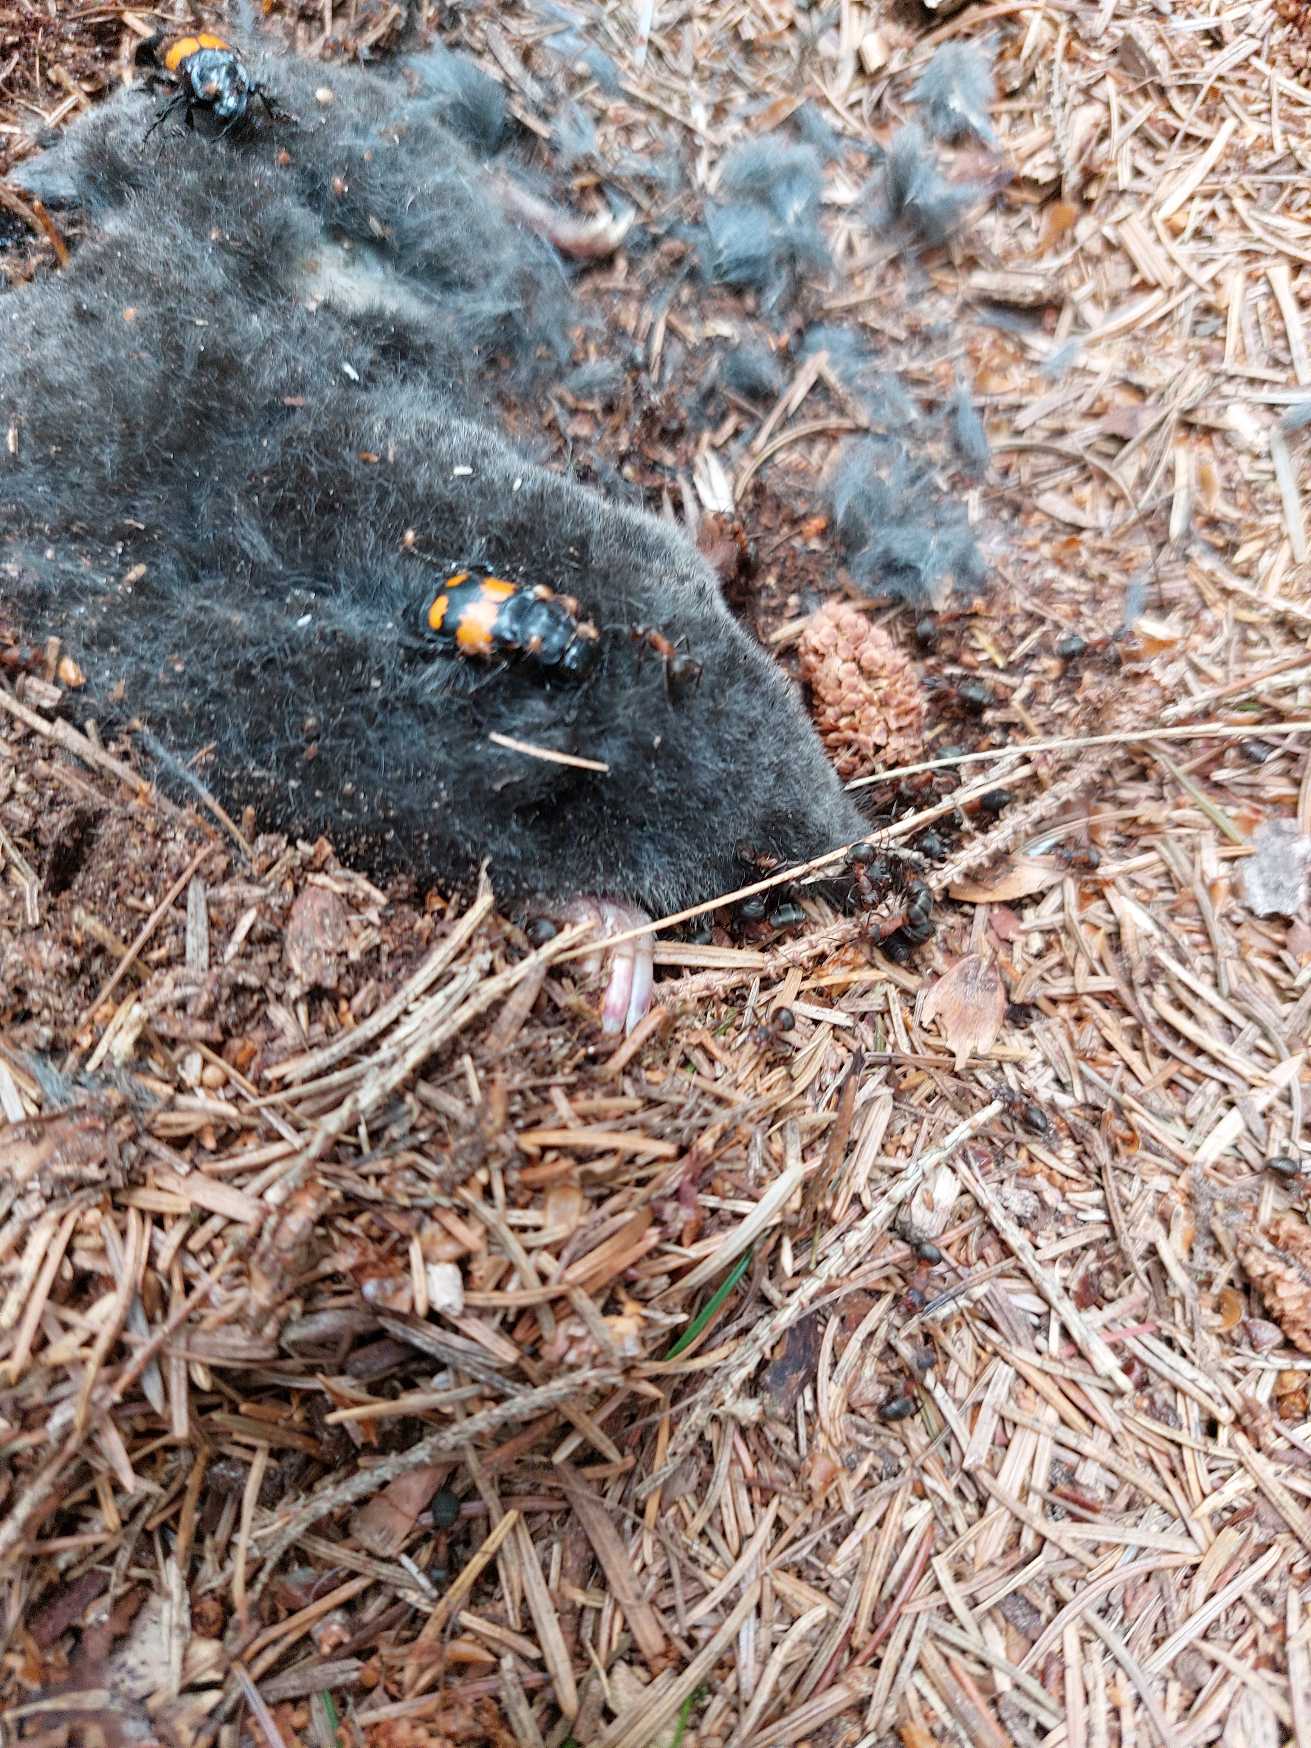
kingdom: Animalia
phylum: Chordata
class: Mammalia
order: Soricomorpha
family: Talpidae
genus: Talpa
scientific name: Talpa europaea
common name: Muldvarp
